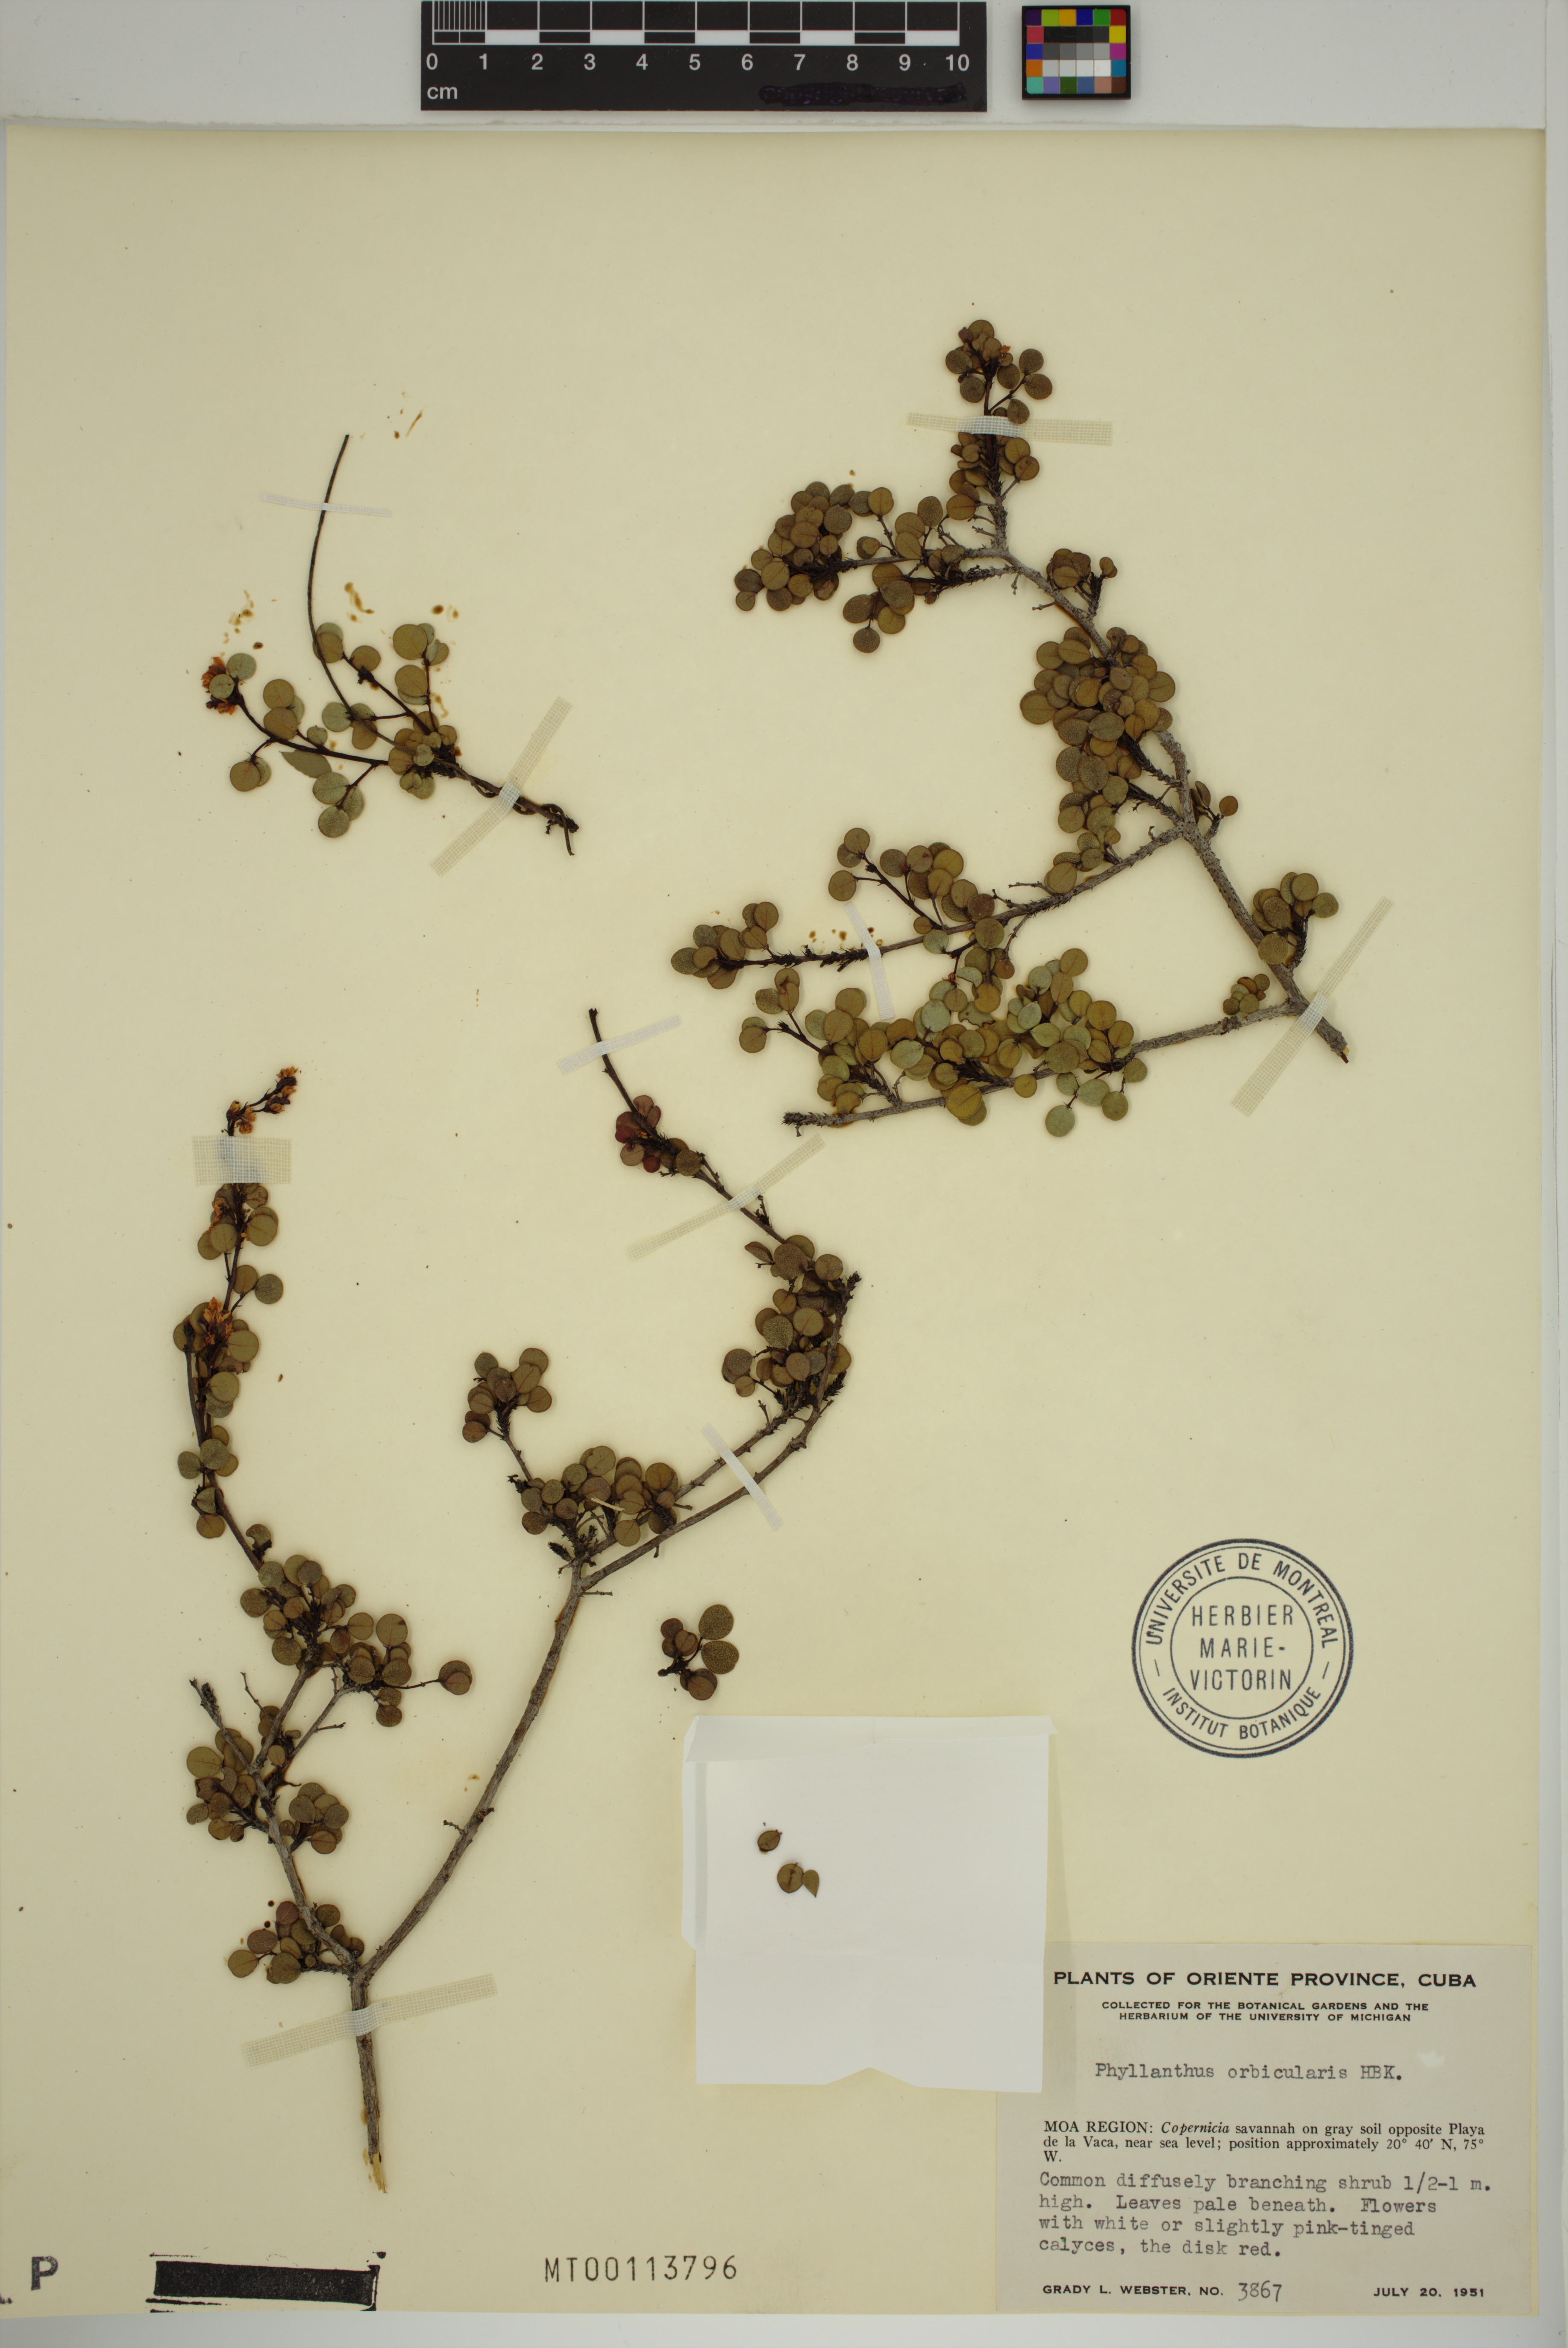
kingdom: Plantae
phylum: Tracheophyta
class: Magnoliopsida
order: Malpighiales
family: Phyllanthaceae
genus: Phyllanthus
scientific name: Phyllanthus orbicularis
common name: Wedge leaf-flower
